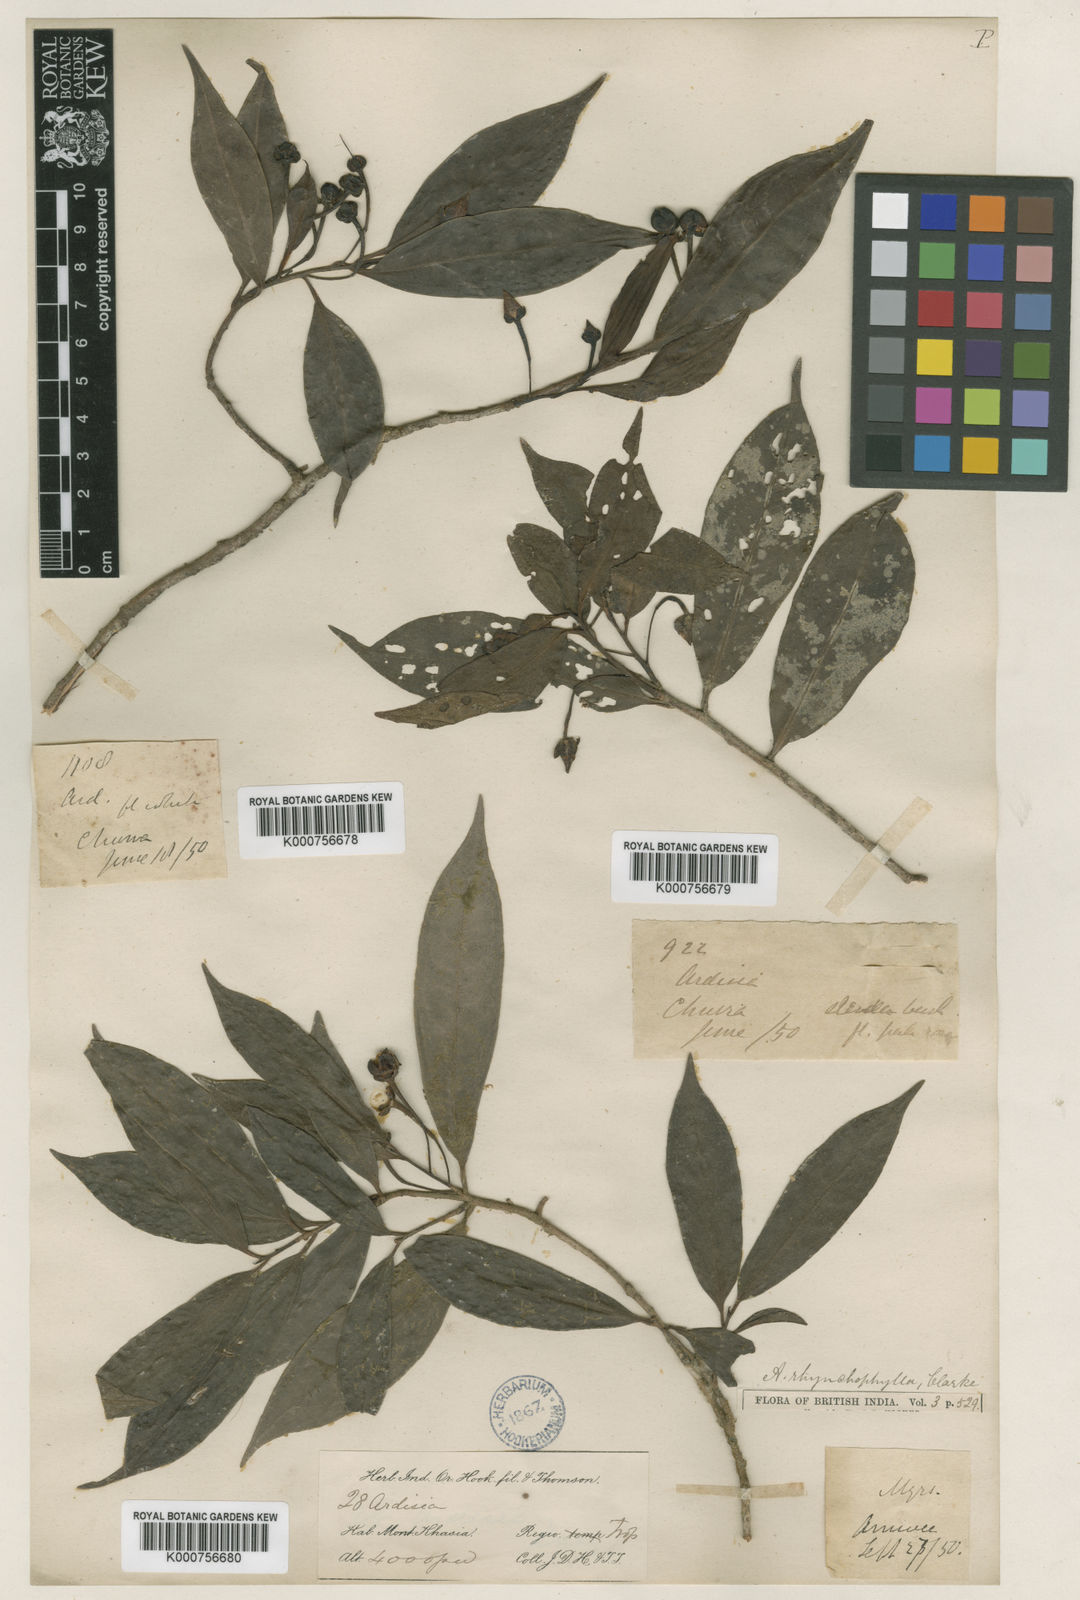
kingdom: Plantae
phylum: Tracheophyta
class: Magnoliopsida
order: Ericales
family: Primulaceae
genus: Ardisia
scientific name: Ardisia rhynchophylla
